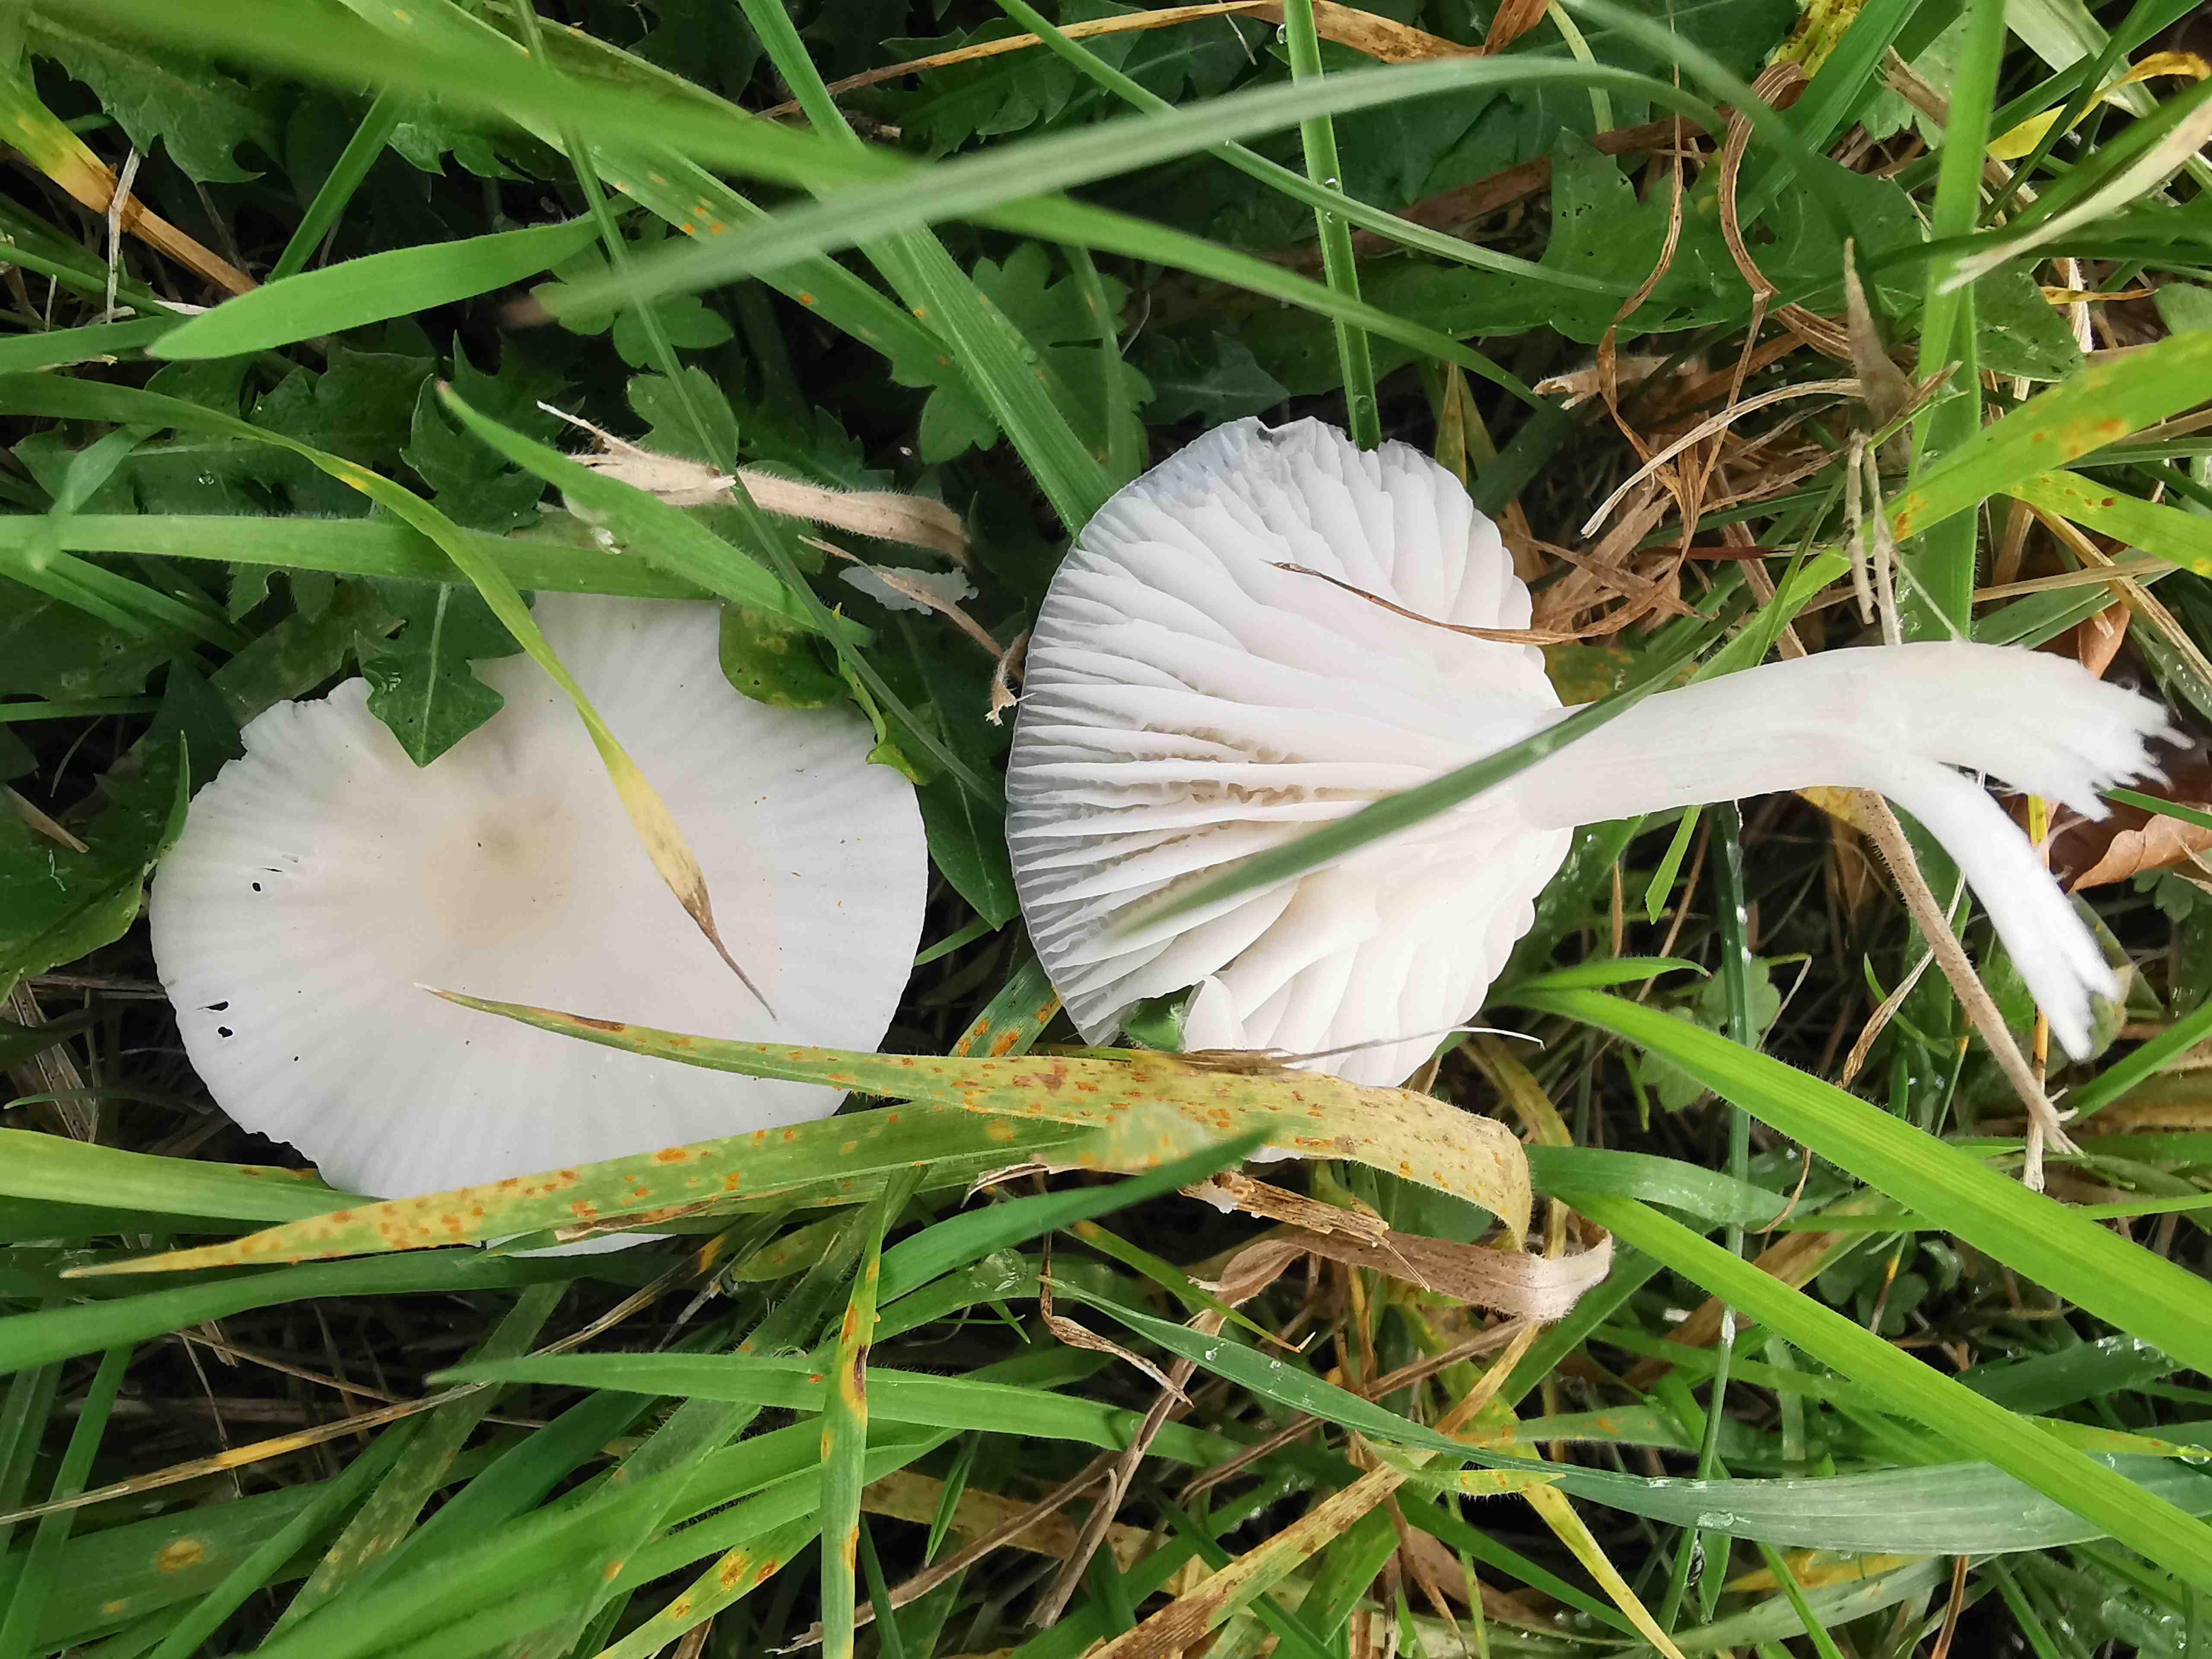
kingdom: Fungi
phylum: Basidiomycota
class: Agaricomycetes
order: Agaricales
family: Hygrophoraceae
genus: Cuphophyllus
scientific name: Cuphophyllus virgineus
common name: snehvid vokshat
